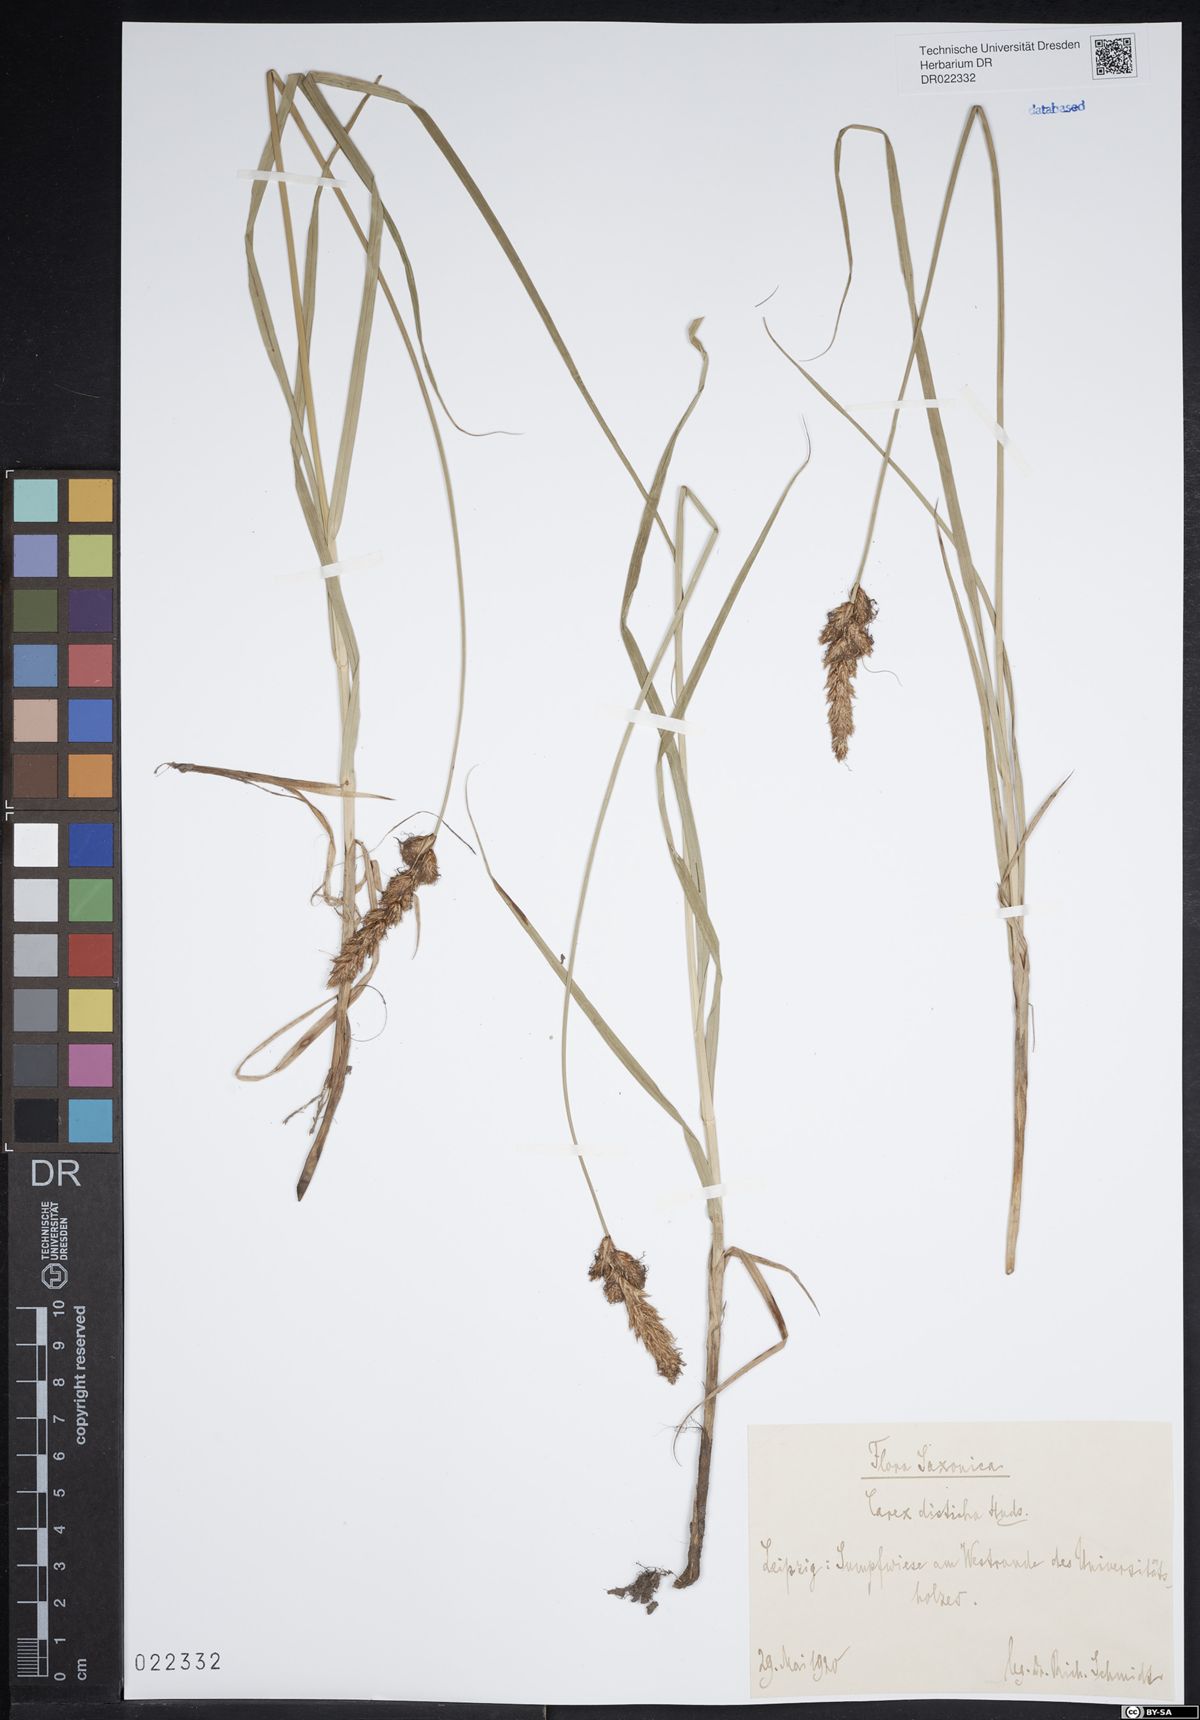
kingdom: Plantae
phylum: Tracheophyta
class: Liliopsida
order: Poales
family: Cyperaceae
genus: Carex
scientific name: Carex disticha
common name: Brown sedge
